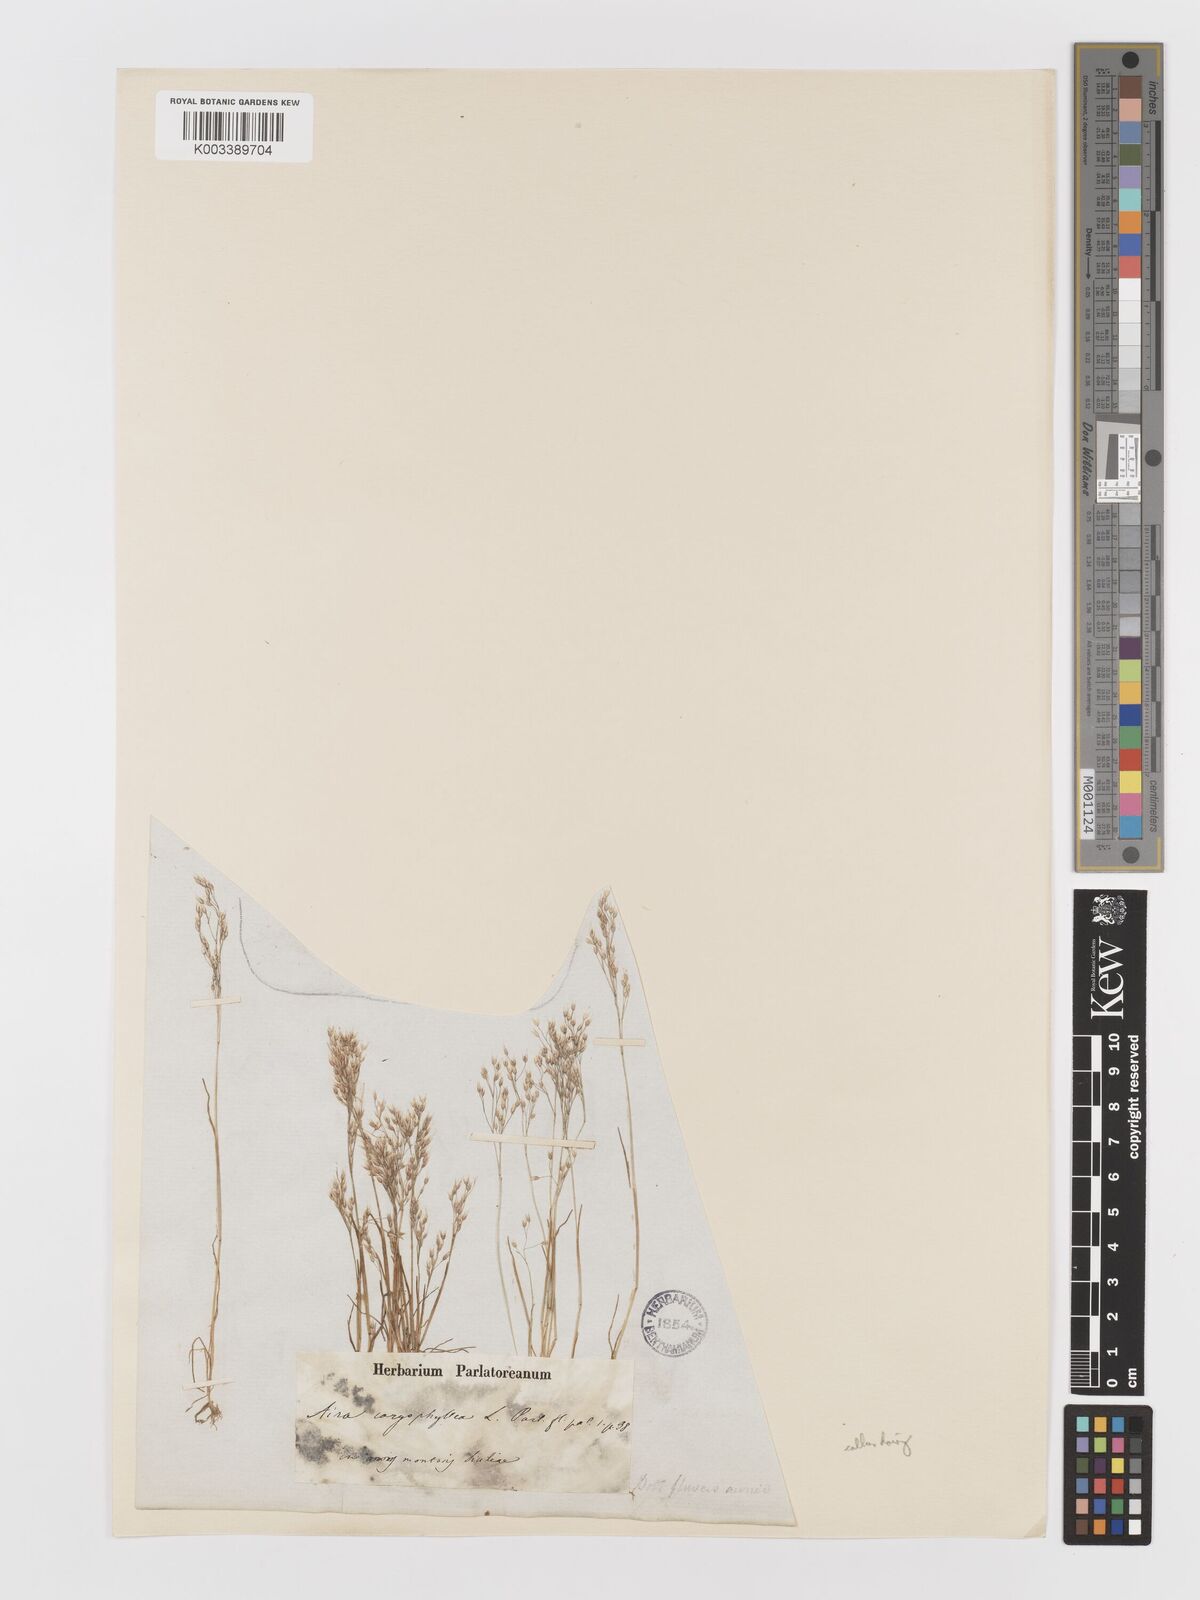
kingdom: Plantae
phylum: Tracheophyta
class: Liliopsida
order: Poales
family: Poaceae
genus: Aira
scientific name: Aira caryophyllea
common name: Silver hairgrass
